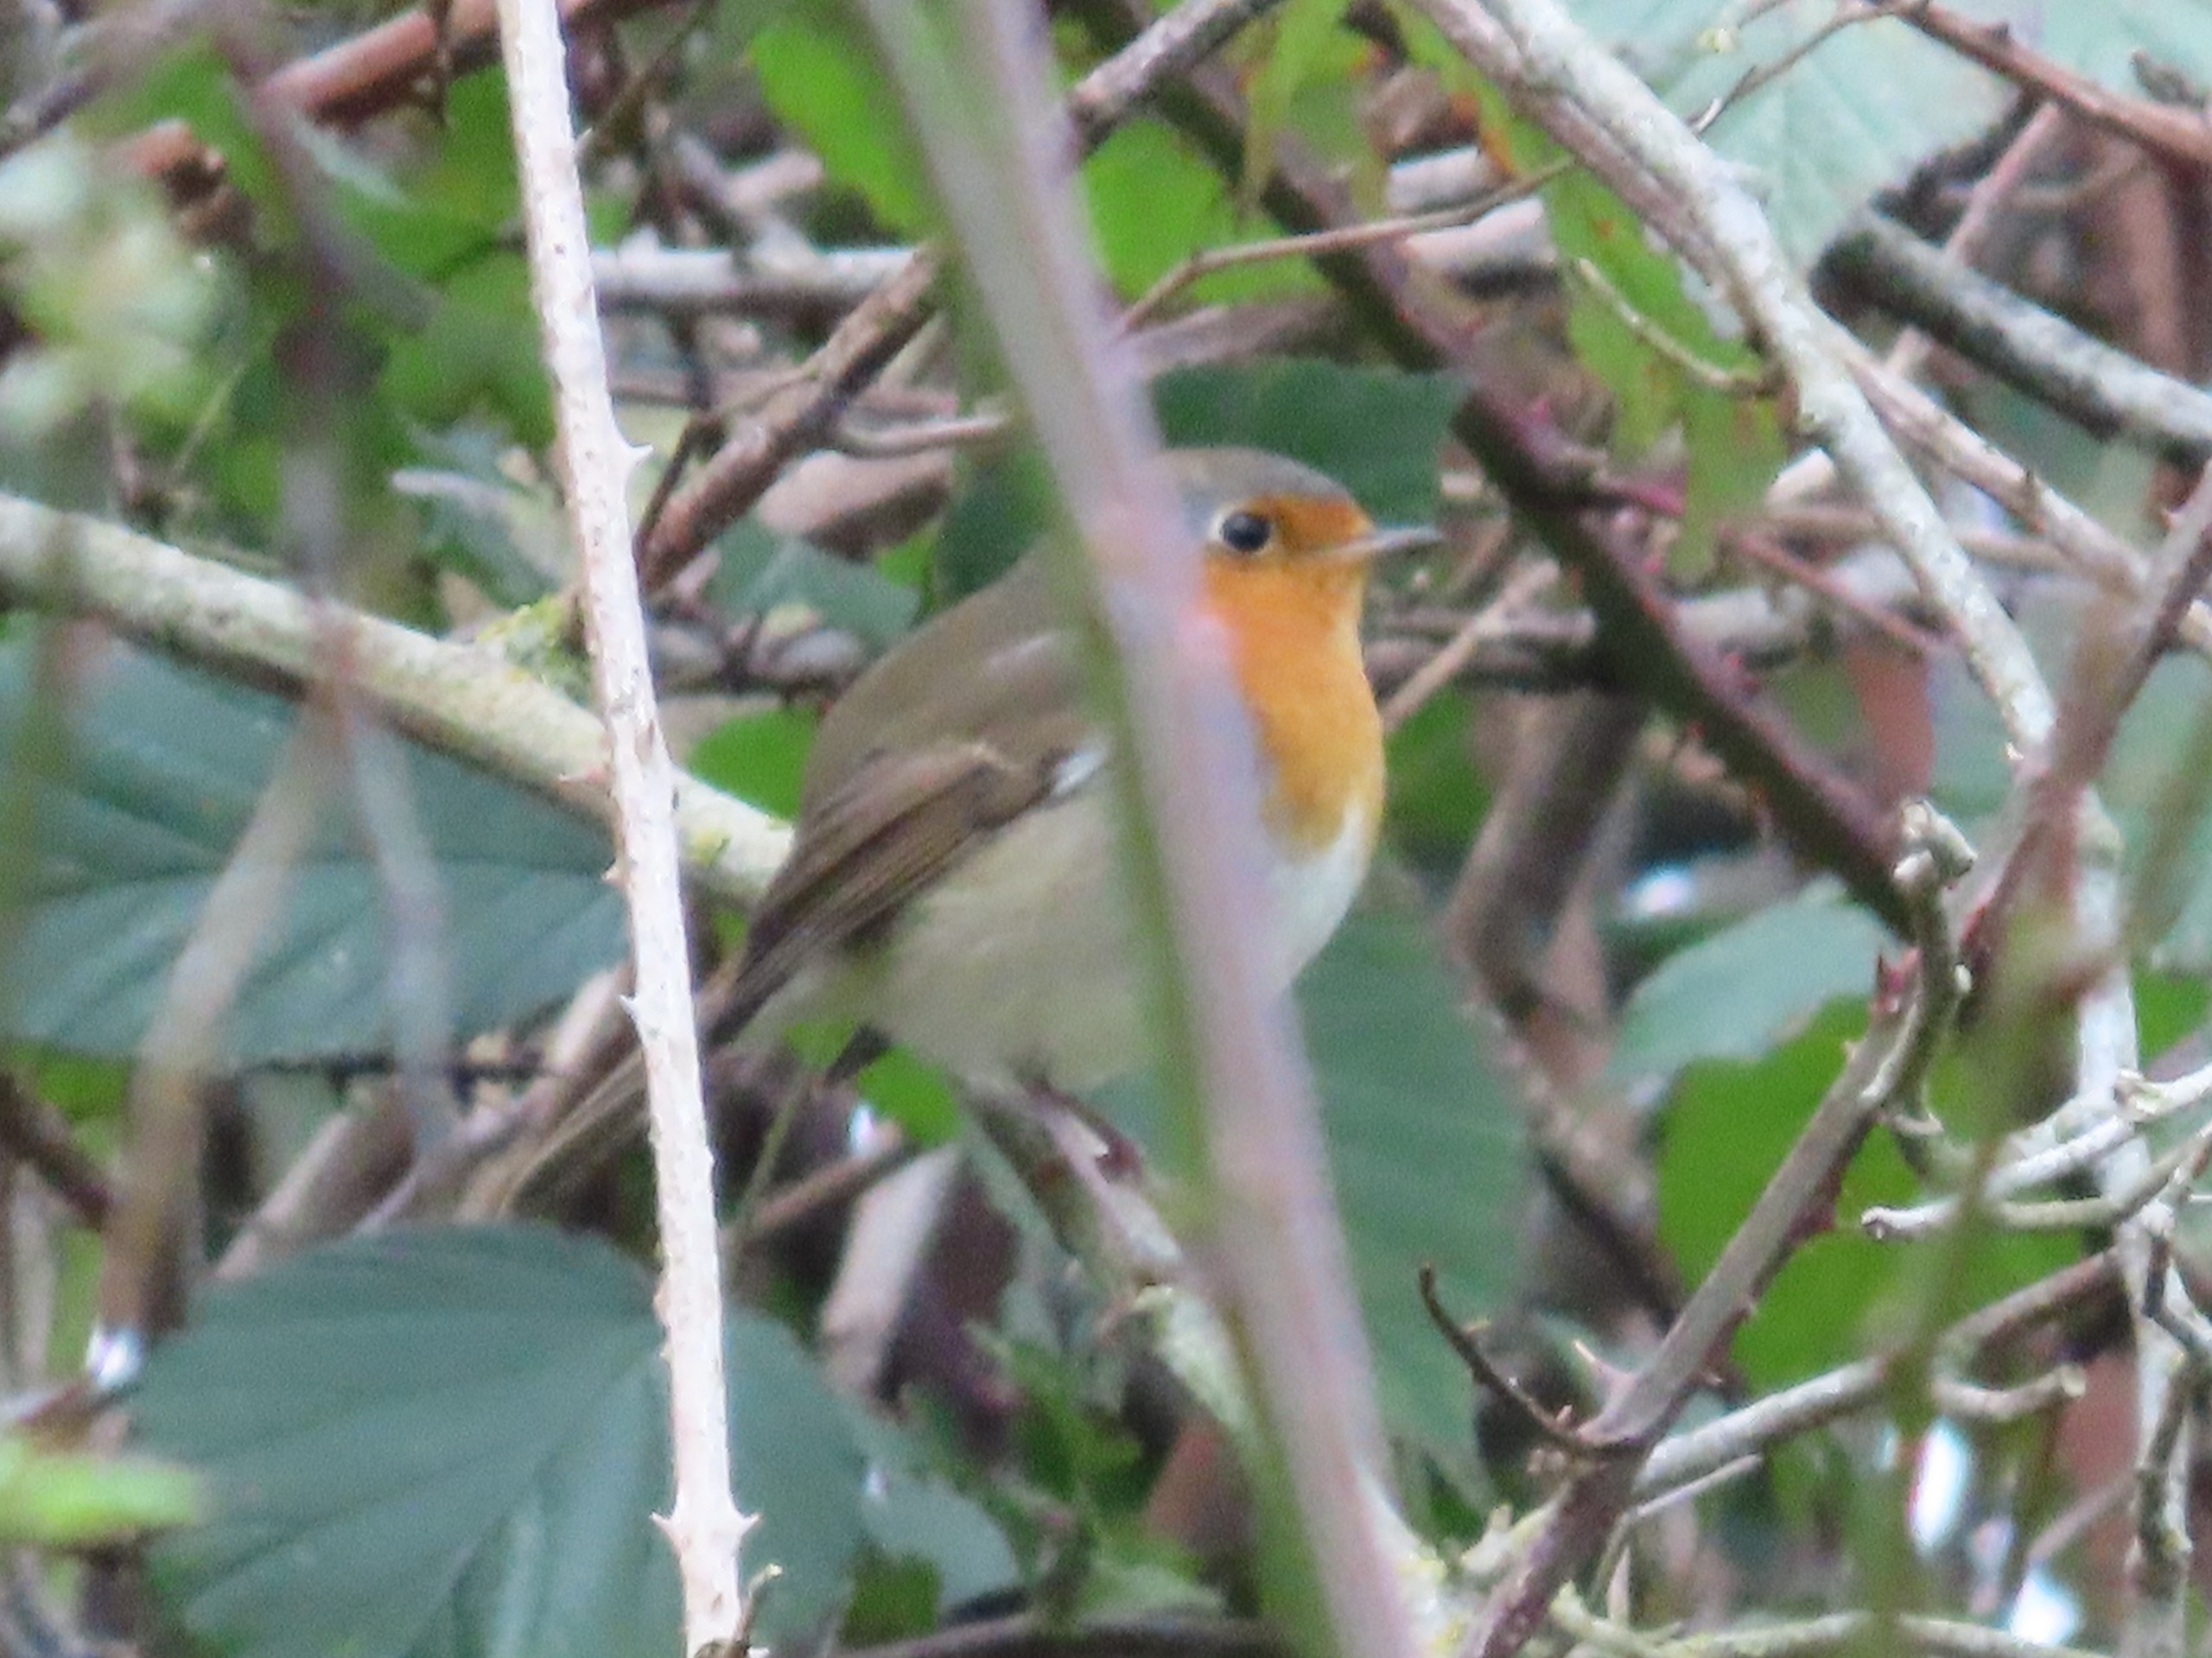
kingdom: Animalia
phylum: Chordata
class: Aves
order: Passeriformes
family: Muscicapidae
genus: Erithacus
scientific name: Erithacus rubecula
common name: Rødhals/rødkælk
